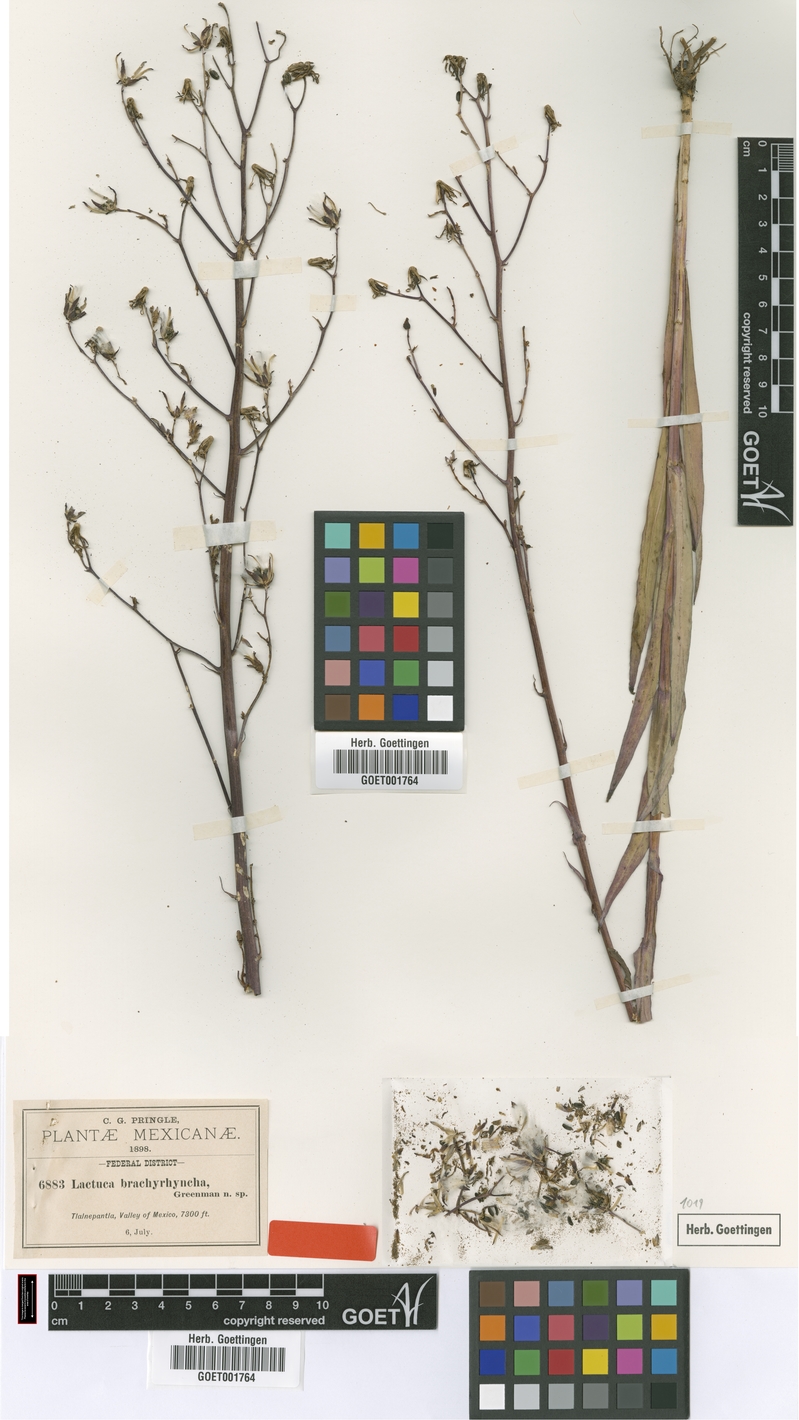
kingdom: Plantae
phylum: Tracheophyta
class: Magnoliopsida
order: Asterales
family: Asteraceae
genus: Lactuca
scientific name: Lactuca brachyrrhyncha
